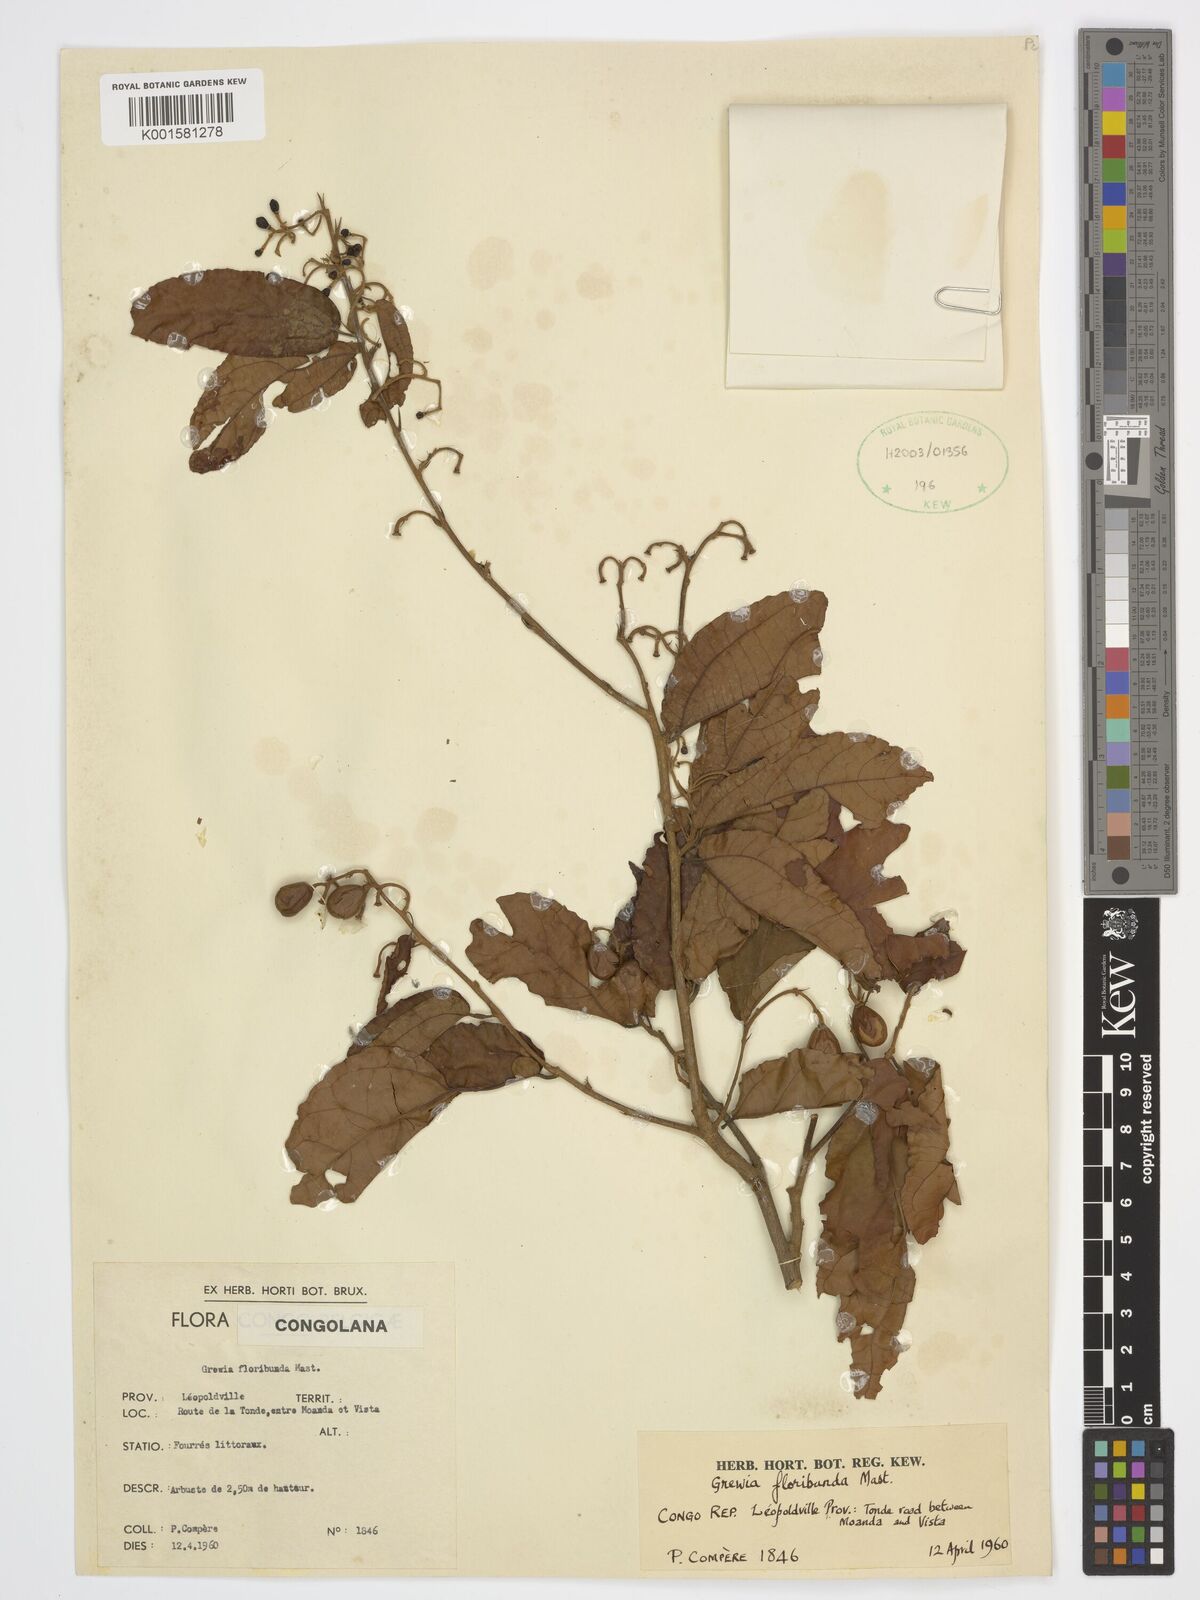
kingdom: Plantae
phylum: Tracheophyta
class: Magnoliopsida
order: Malvales
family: Malvaceae
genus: Microcos
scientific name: Microcos floribunda
